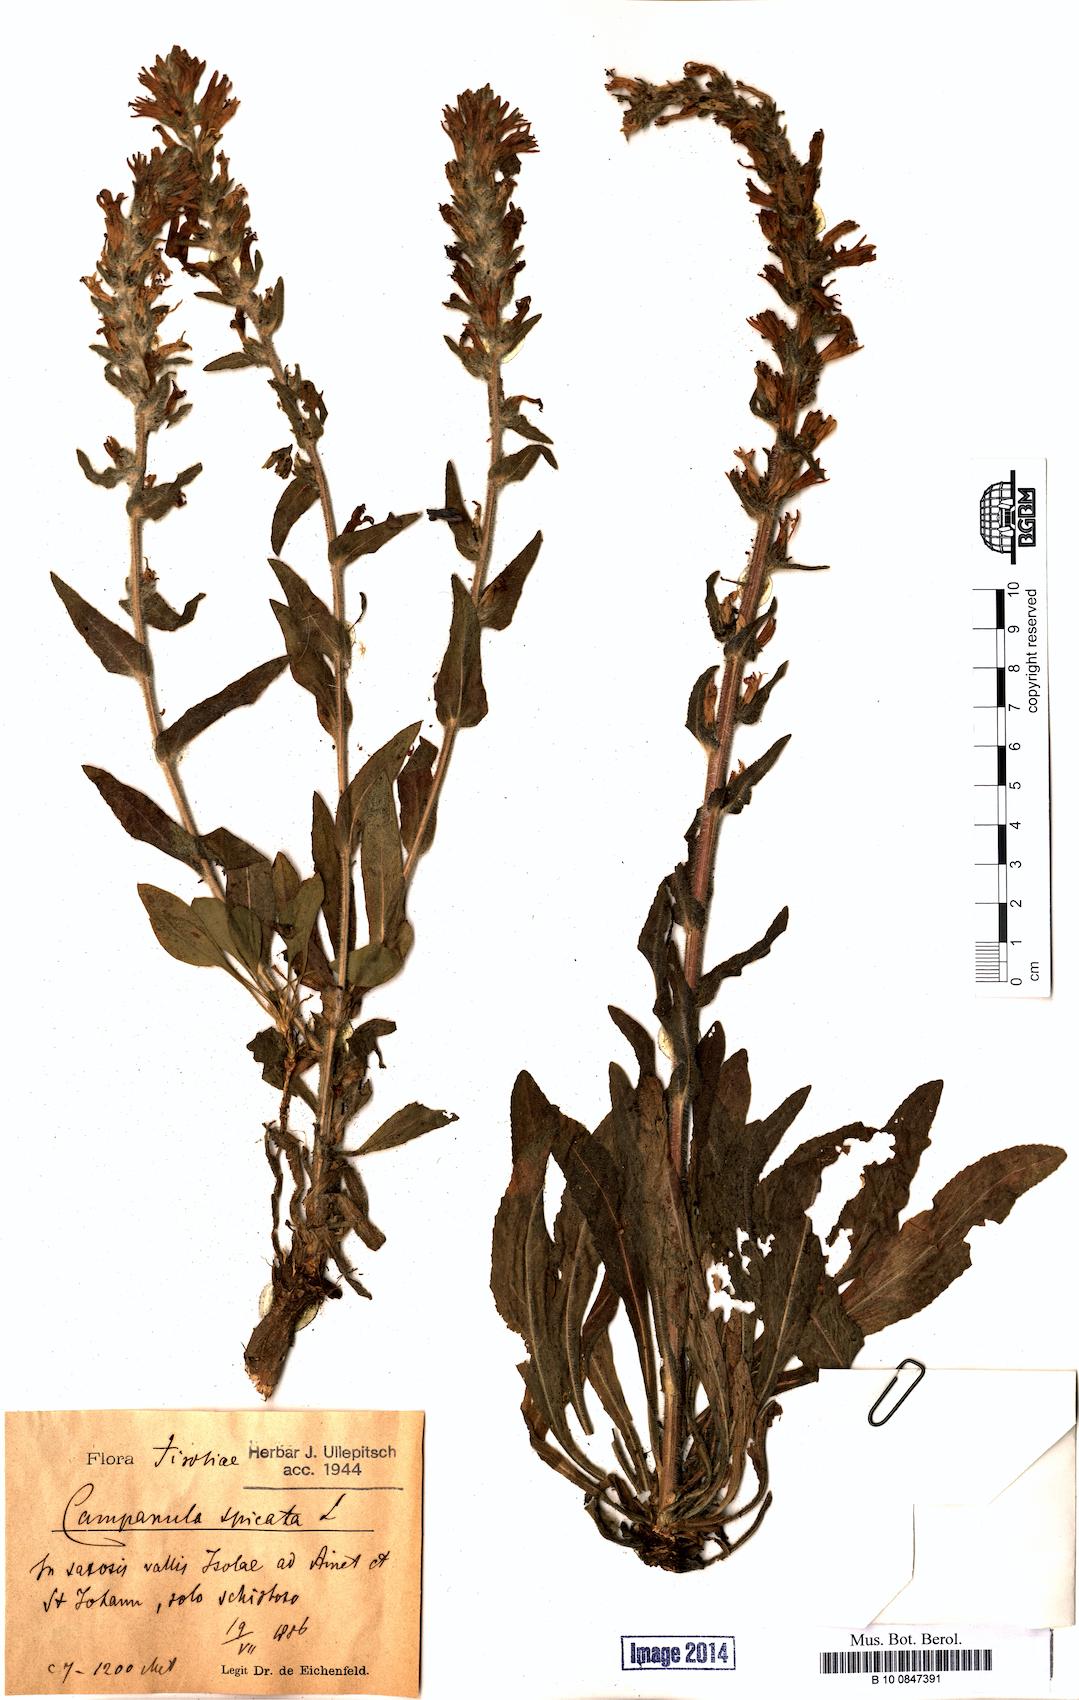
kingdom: Plantae
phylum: Tracheophyta
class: Magnoliopsida
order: Asterales
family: Campanulaceae
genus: Campanula
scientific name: Campanula spicata
